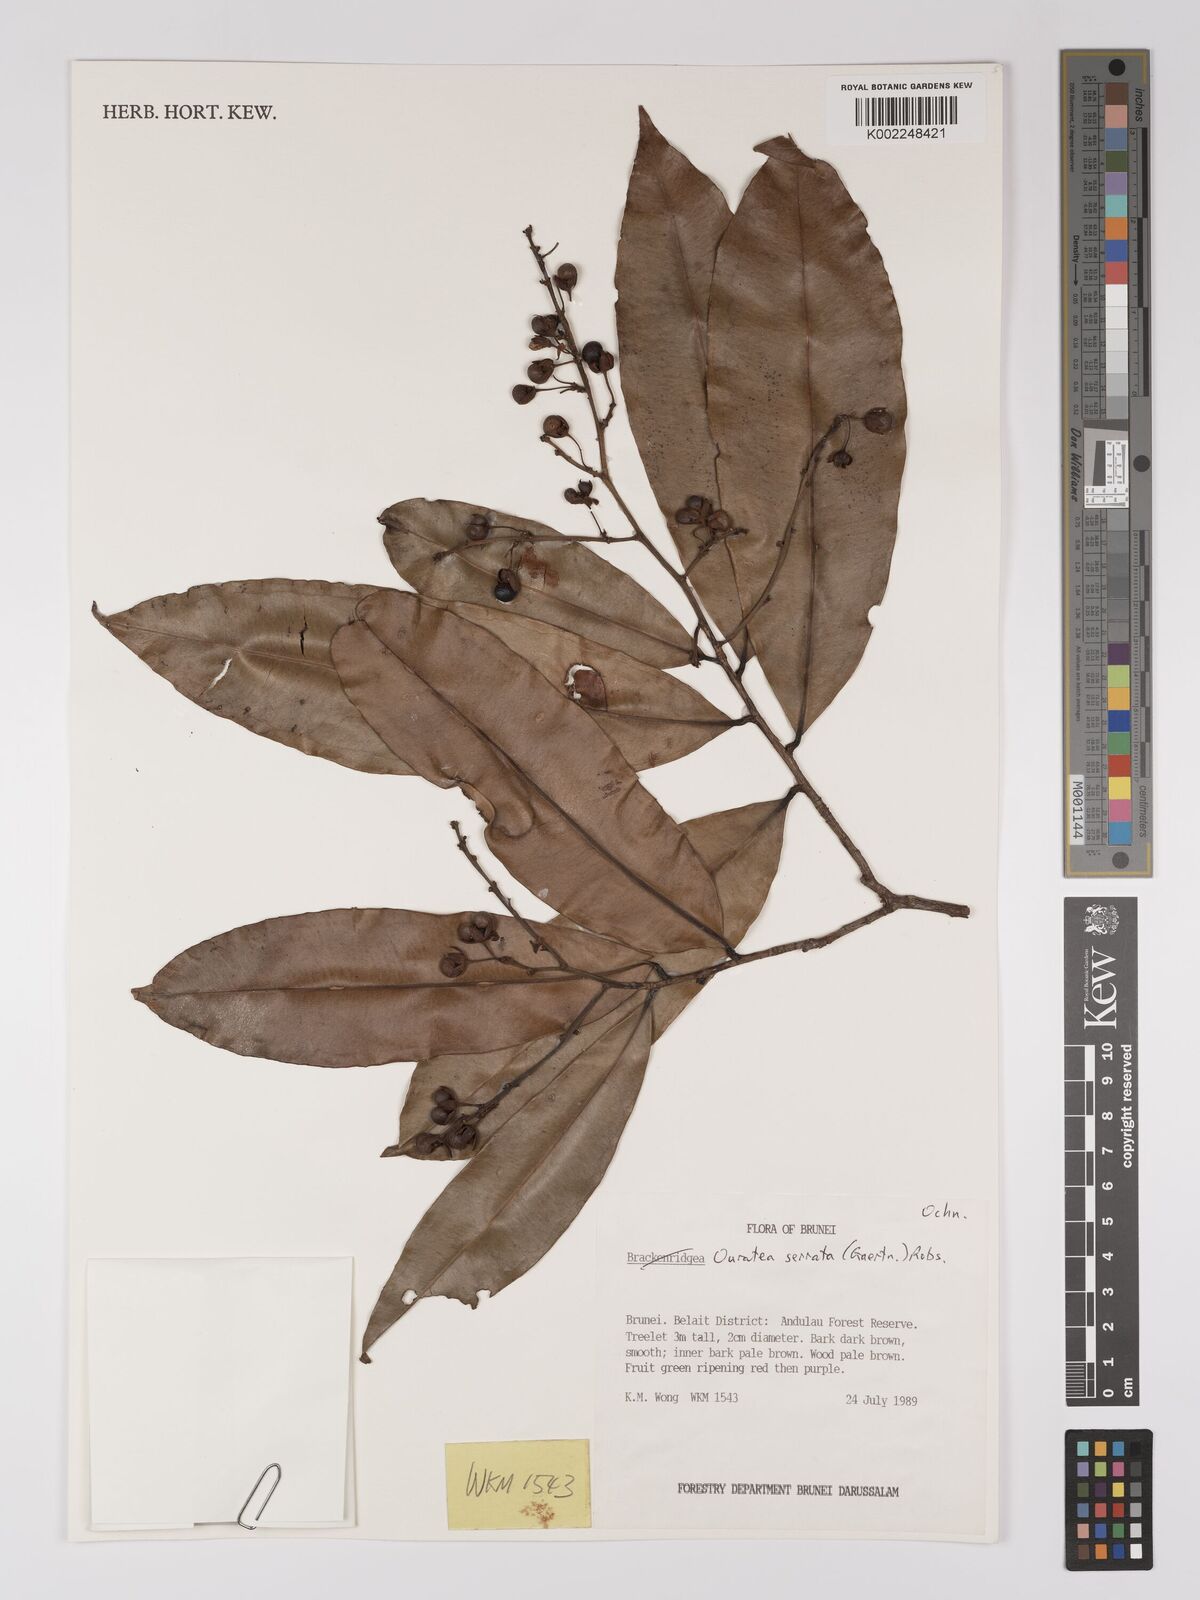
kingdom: Plantae
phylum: Tracheophyta
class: Magnoliopsida
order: Malpighiales
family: Ochnaceae
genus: Gomphia
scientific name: Gomphia serrata
